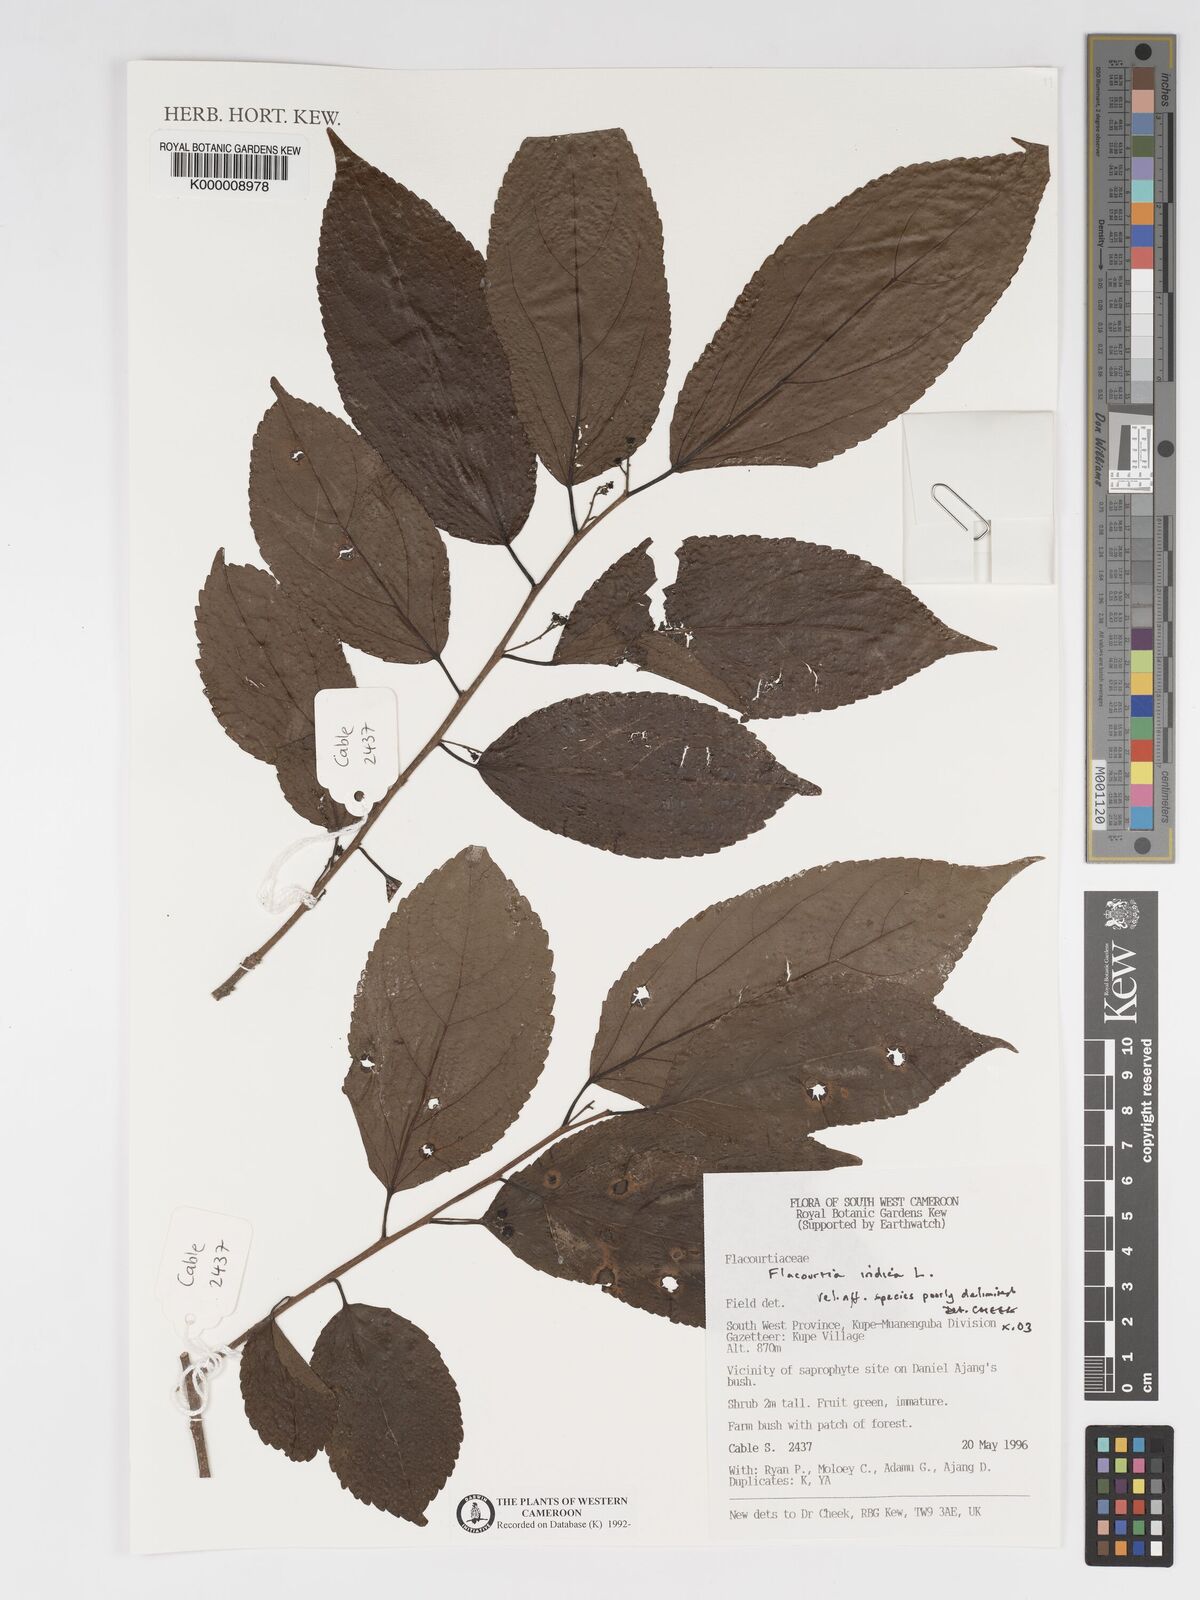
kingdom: Plantae
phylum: Tracheophyta
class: Magnoliopsida
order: Malpighiales
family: Salicaceae
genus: Flacourtia
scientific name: Flacourtia
